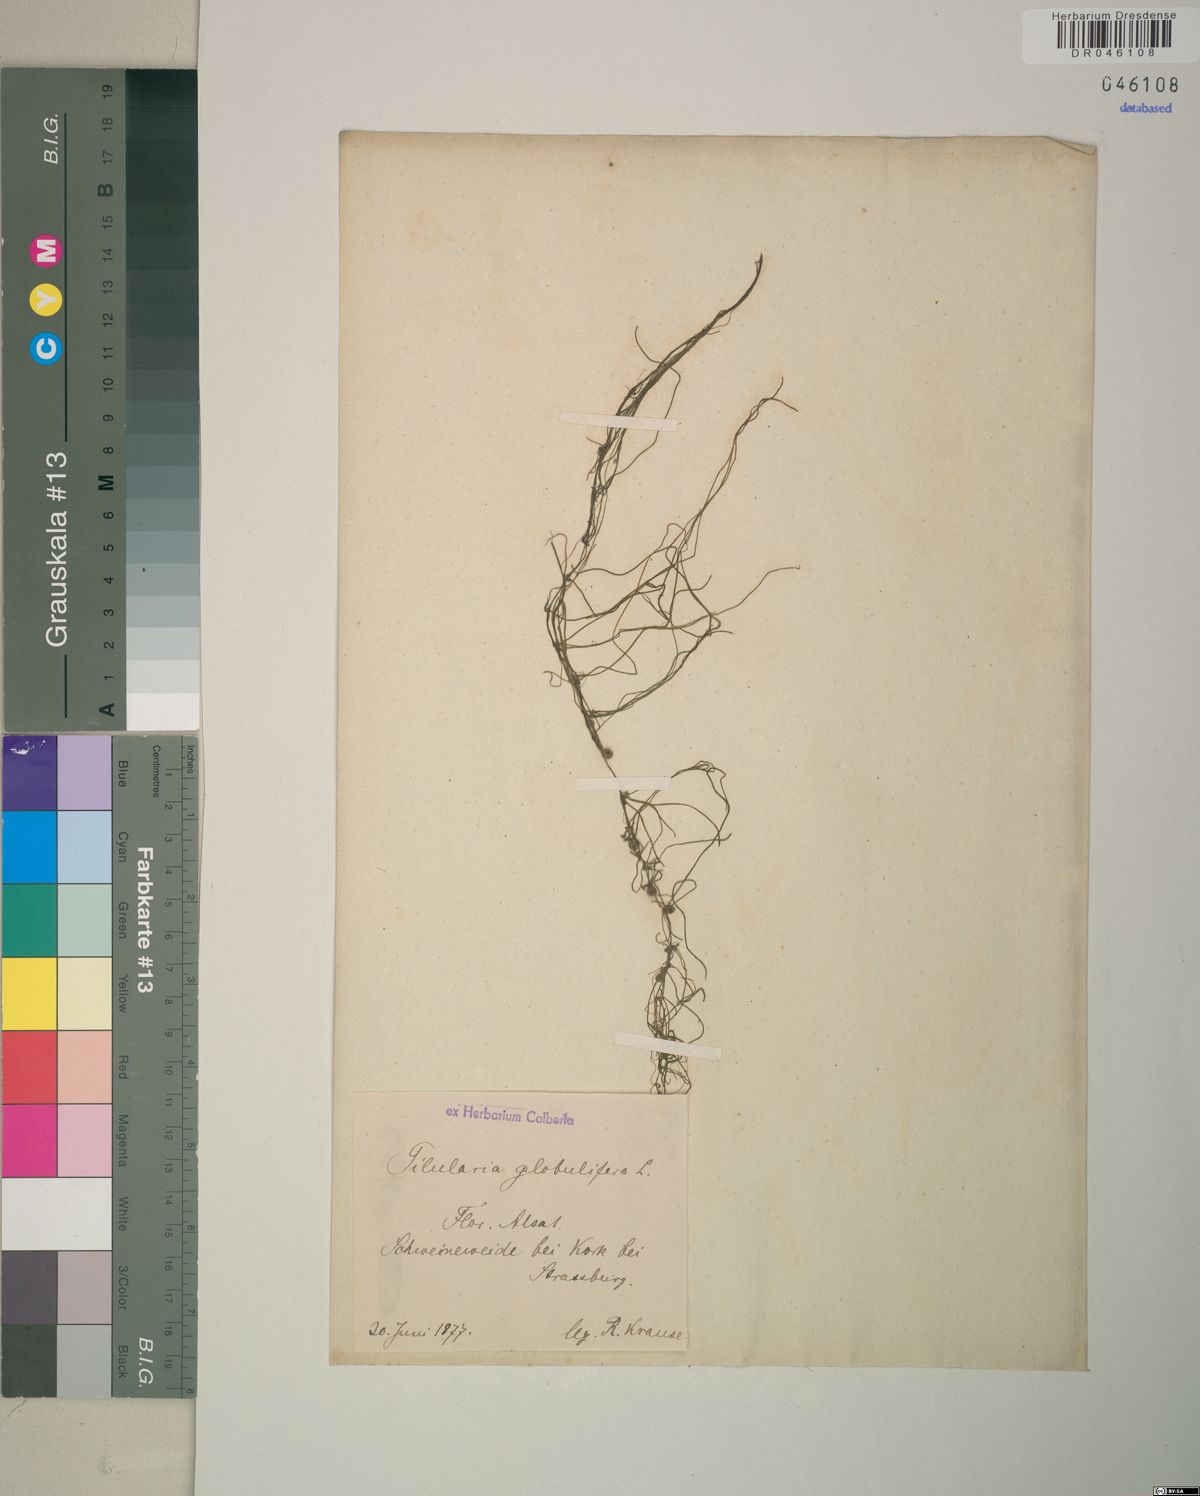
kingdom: Plantae
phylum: Tracheophyta
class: Polypodiopsida
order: Salviniales
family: Marsileaceae
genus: Pilularia
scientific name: Pilularia globulifera
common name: Pillwort
